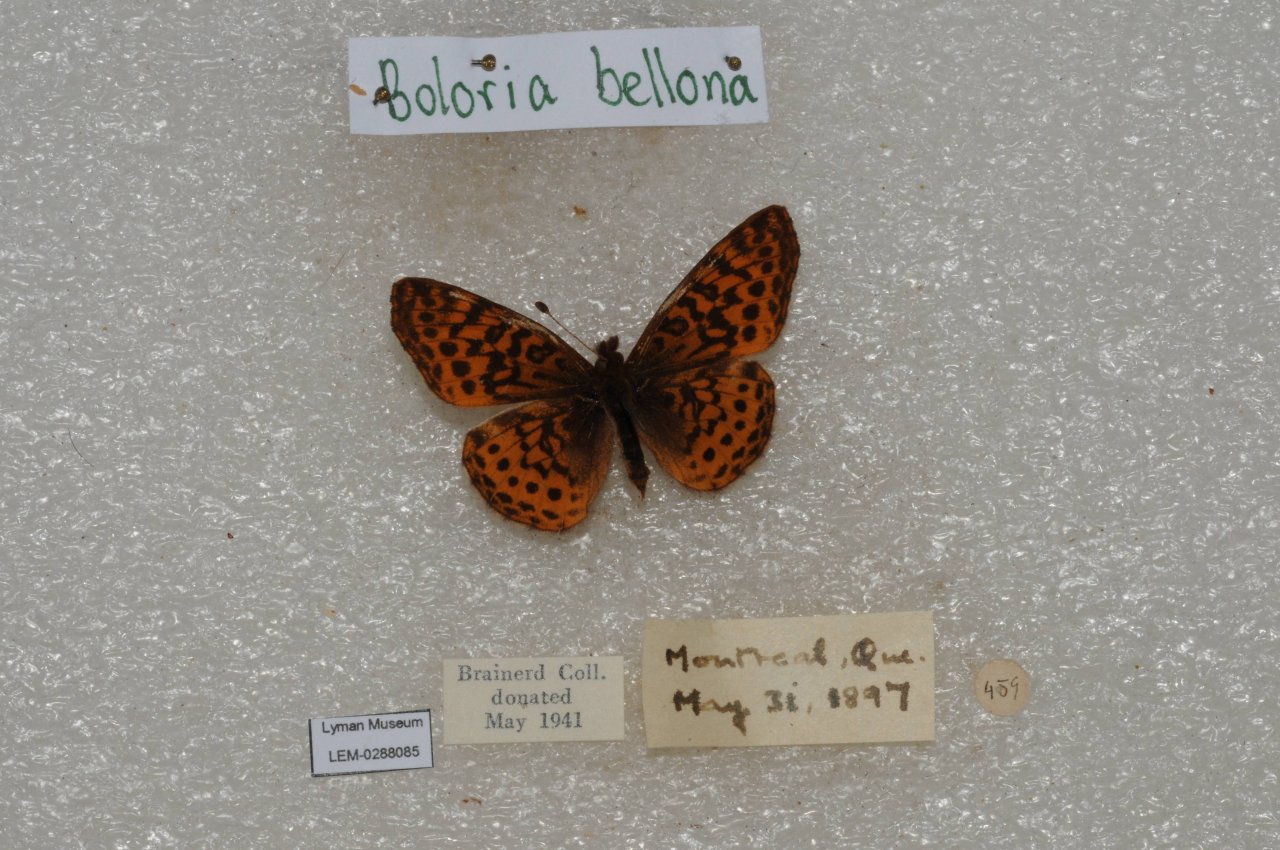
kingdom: Animalia
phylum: Arthropoda
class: Insecta
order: Lepidoptera
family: Nymphalidae
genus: Clossiana
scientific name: Clossiana toddi
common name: Meadow Fritillary
